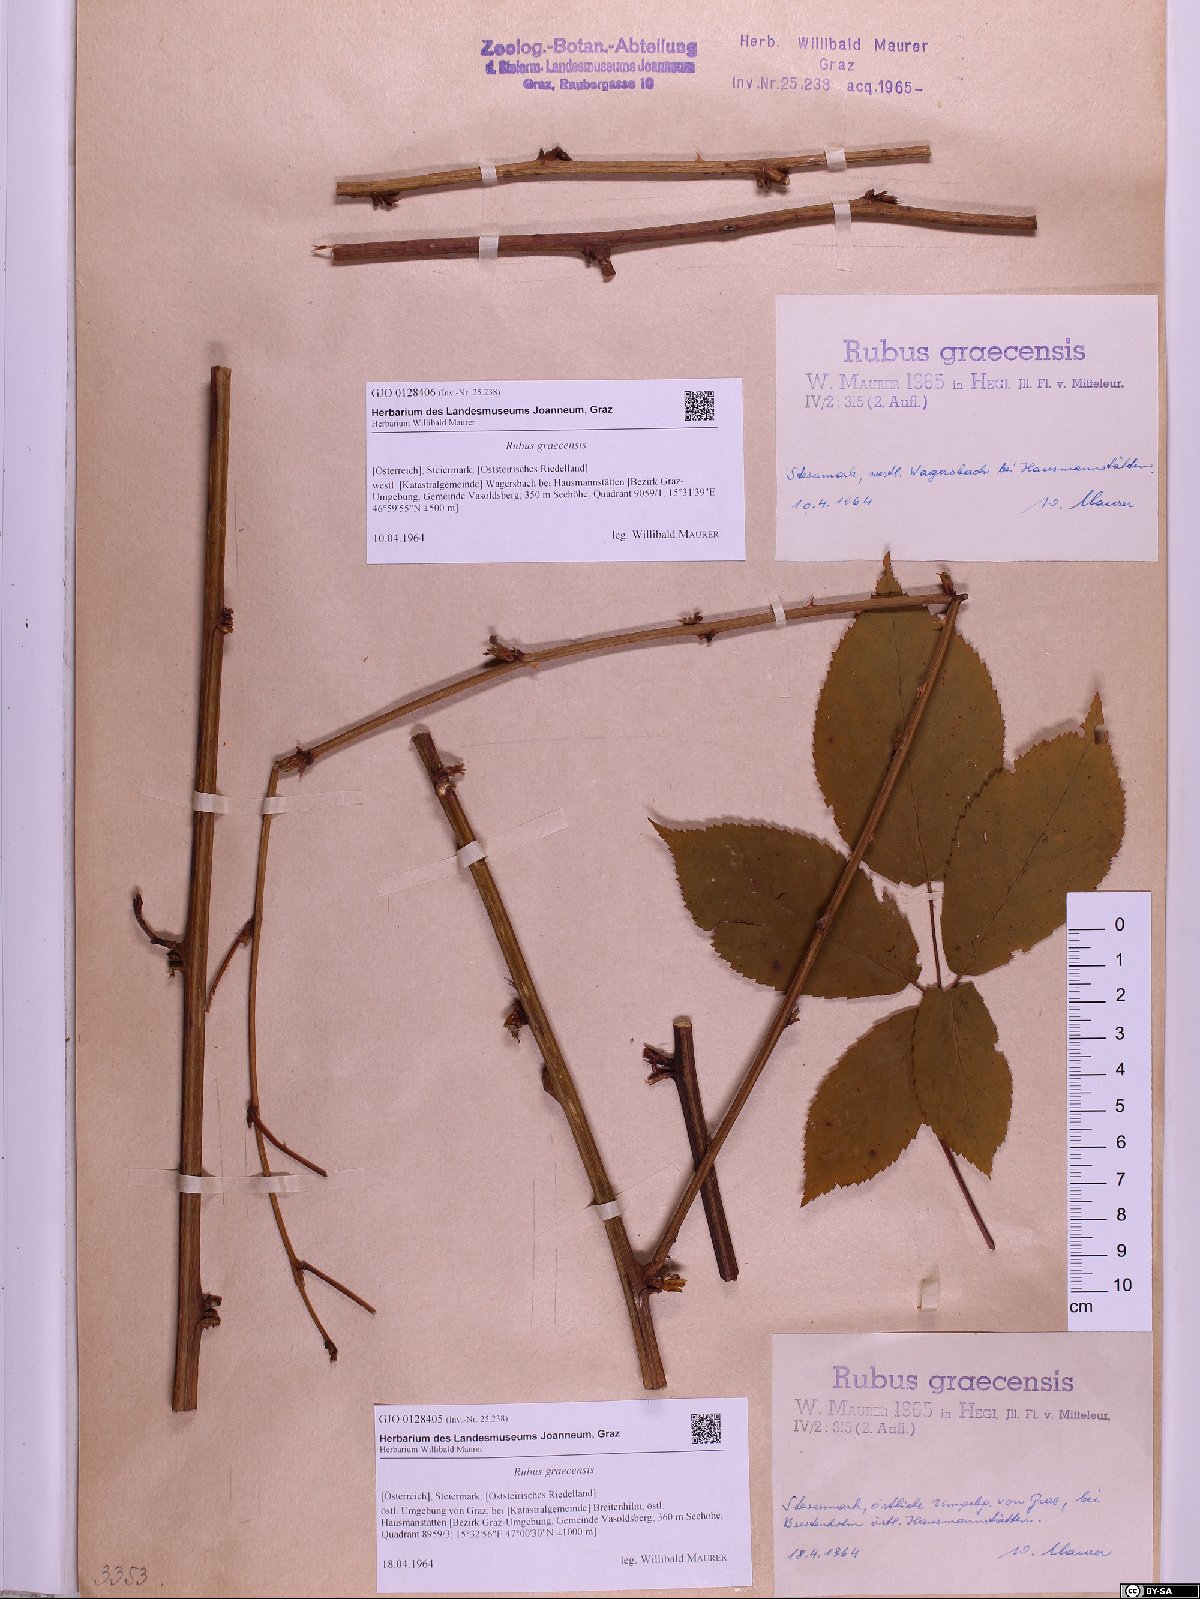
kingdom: Plantae
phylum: Tracheophyta
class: Magnoliopsida
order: Rosales
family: Rosaceae
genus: Rubus
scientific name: Rubus graecensis
